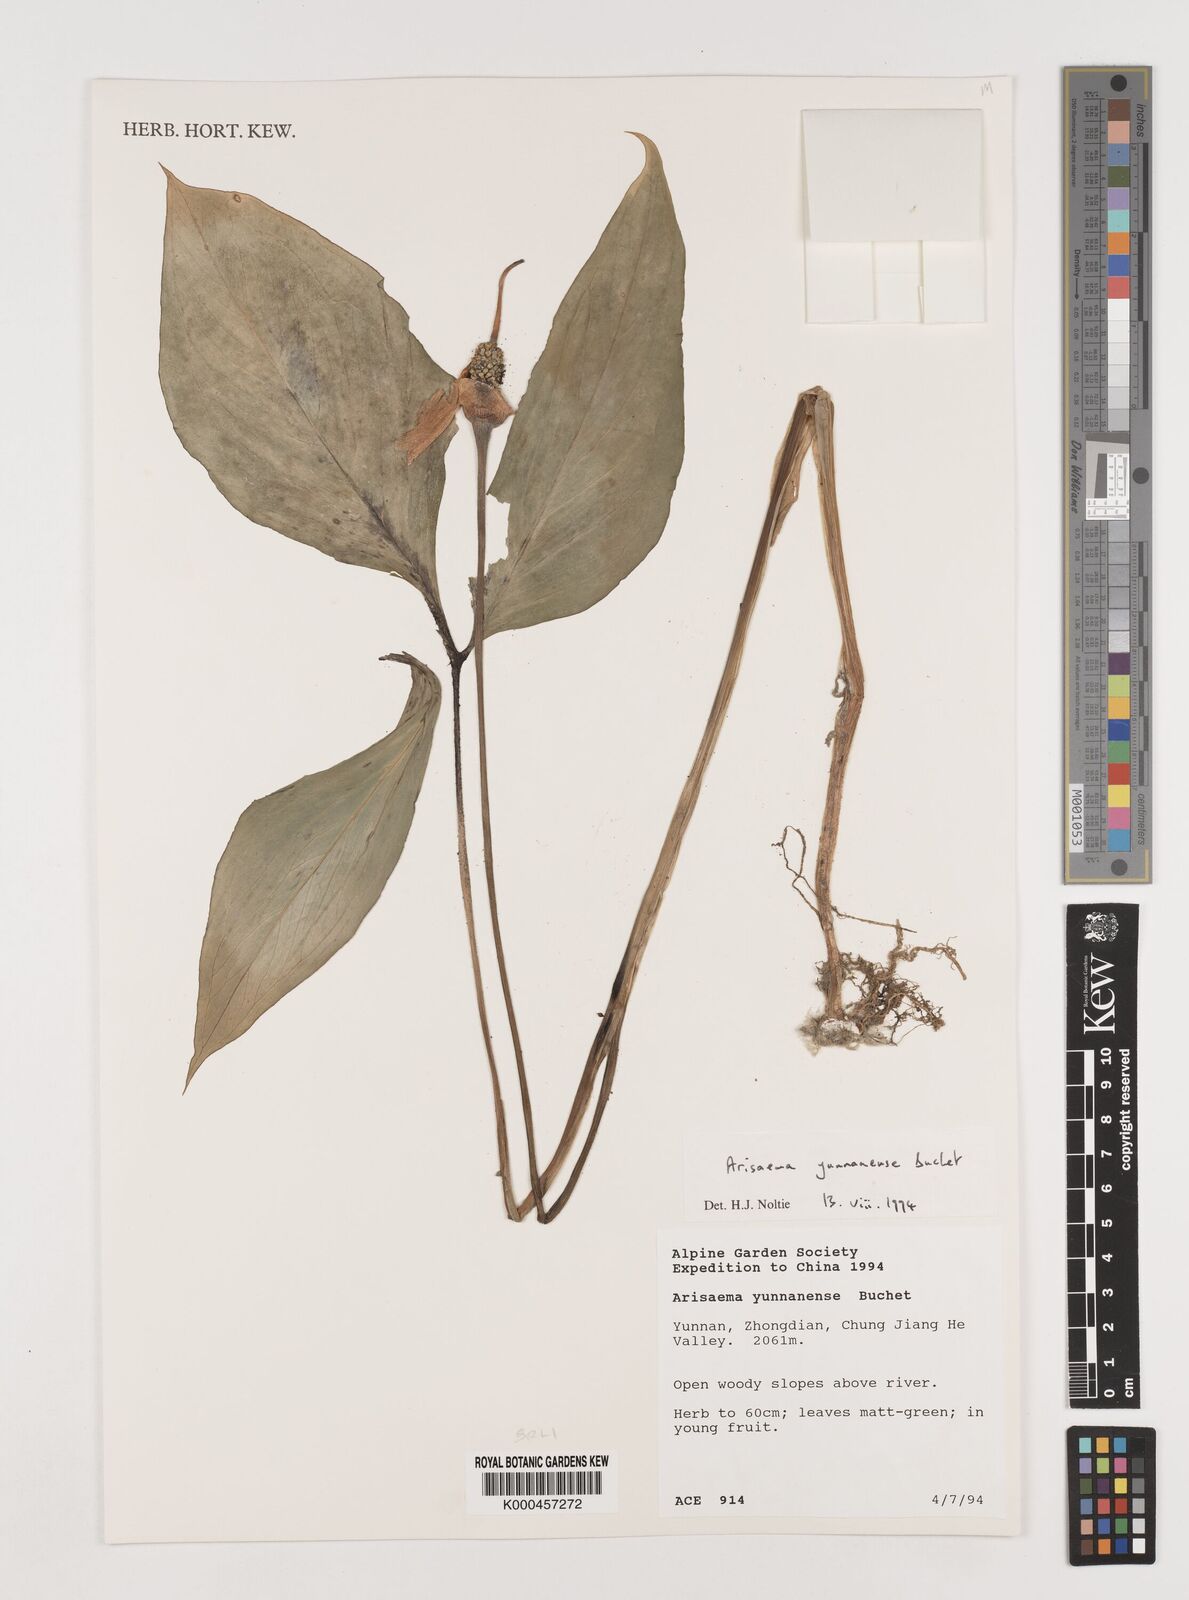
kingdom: Plantae
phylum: Tracheophyta
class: Liliopsida
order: Alismatales
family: Araceae
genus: Arisaema
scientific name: Arisaema yunnanense
